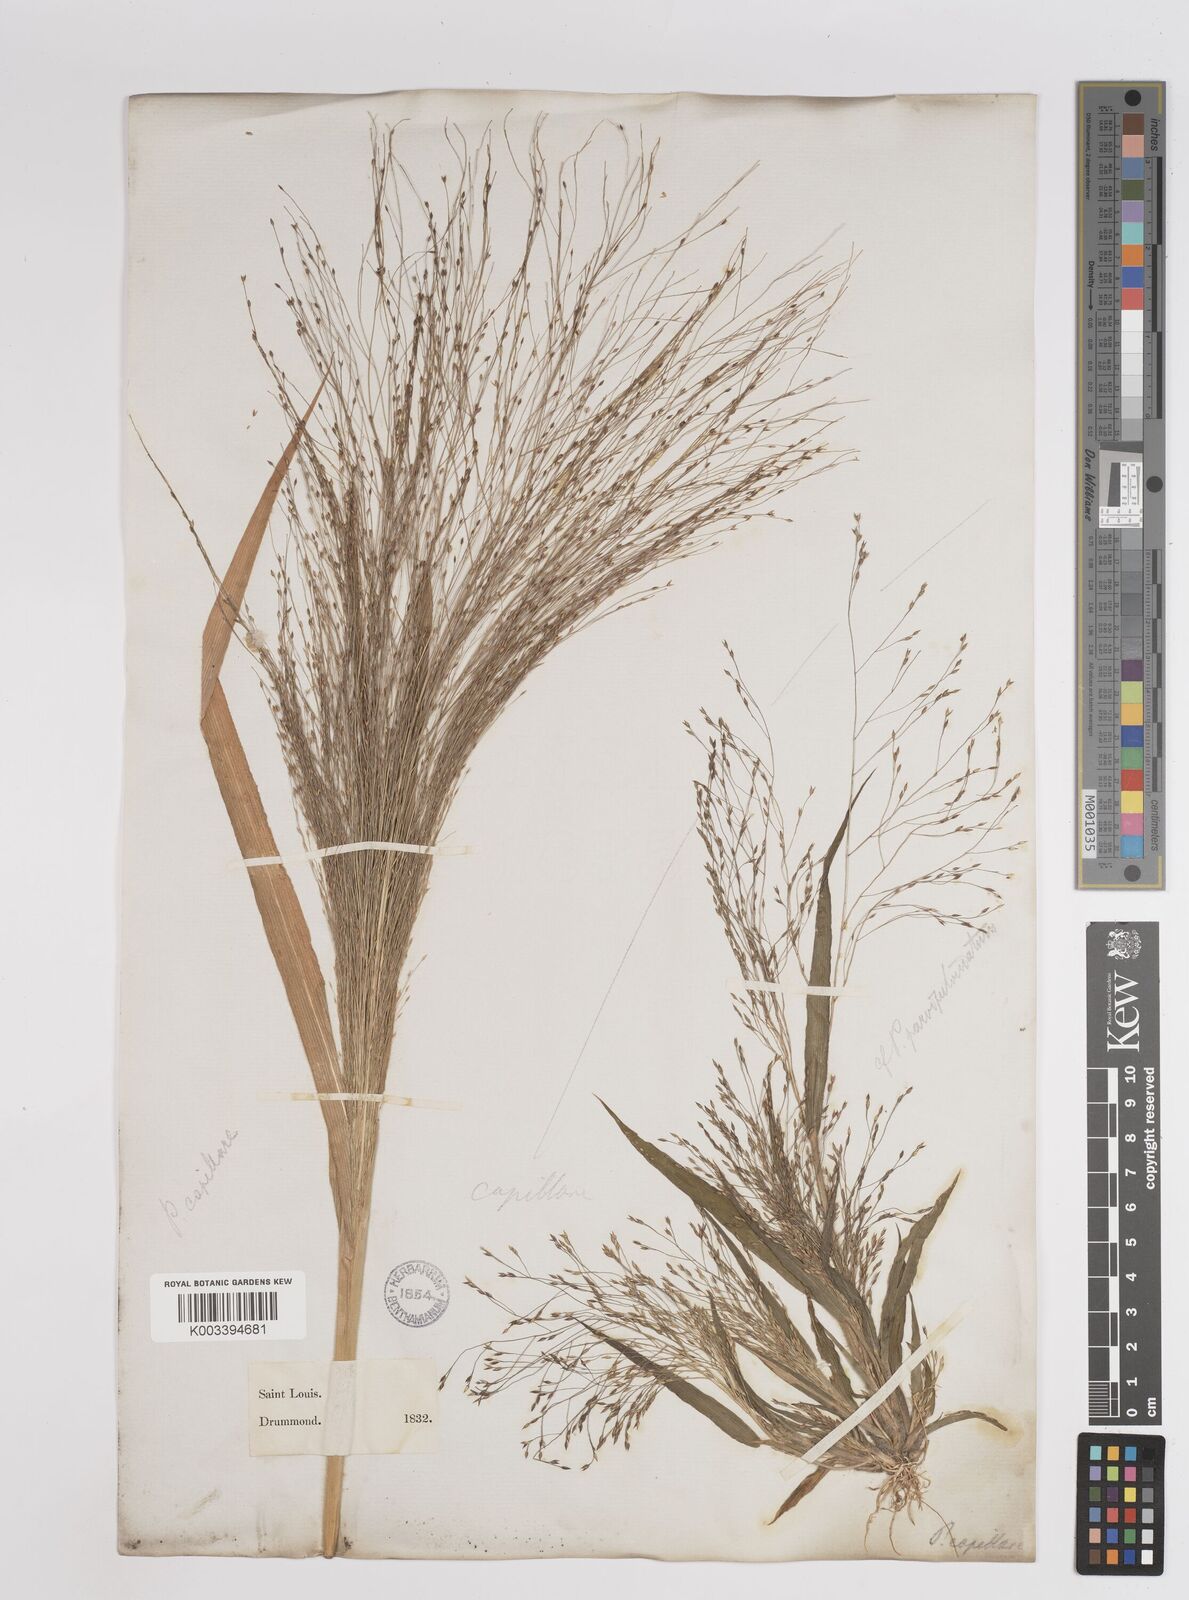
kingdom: Plantae
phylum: Tracheophyta
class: Liliopsida
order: Poales
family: Poaceae
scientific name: Poaceae
